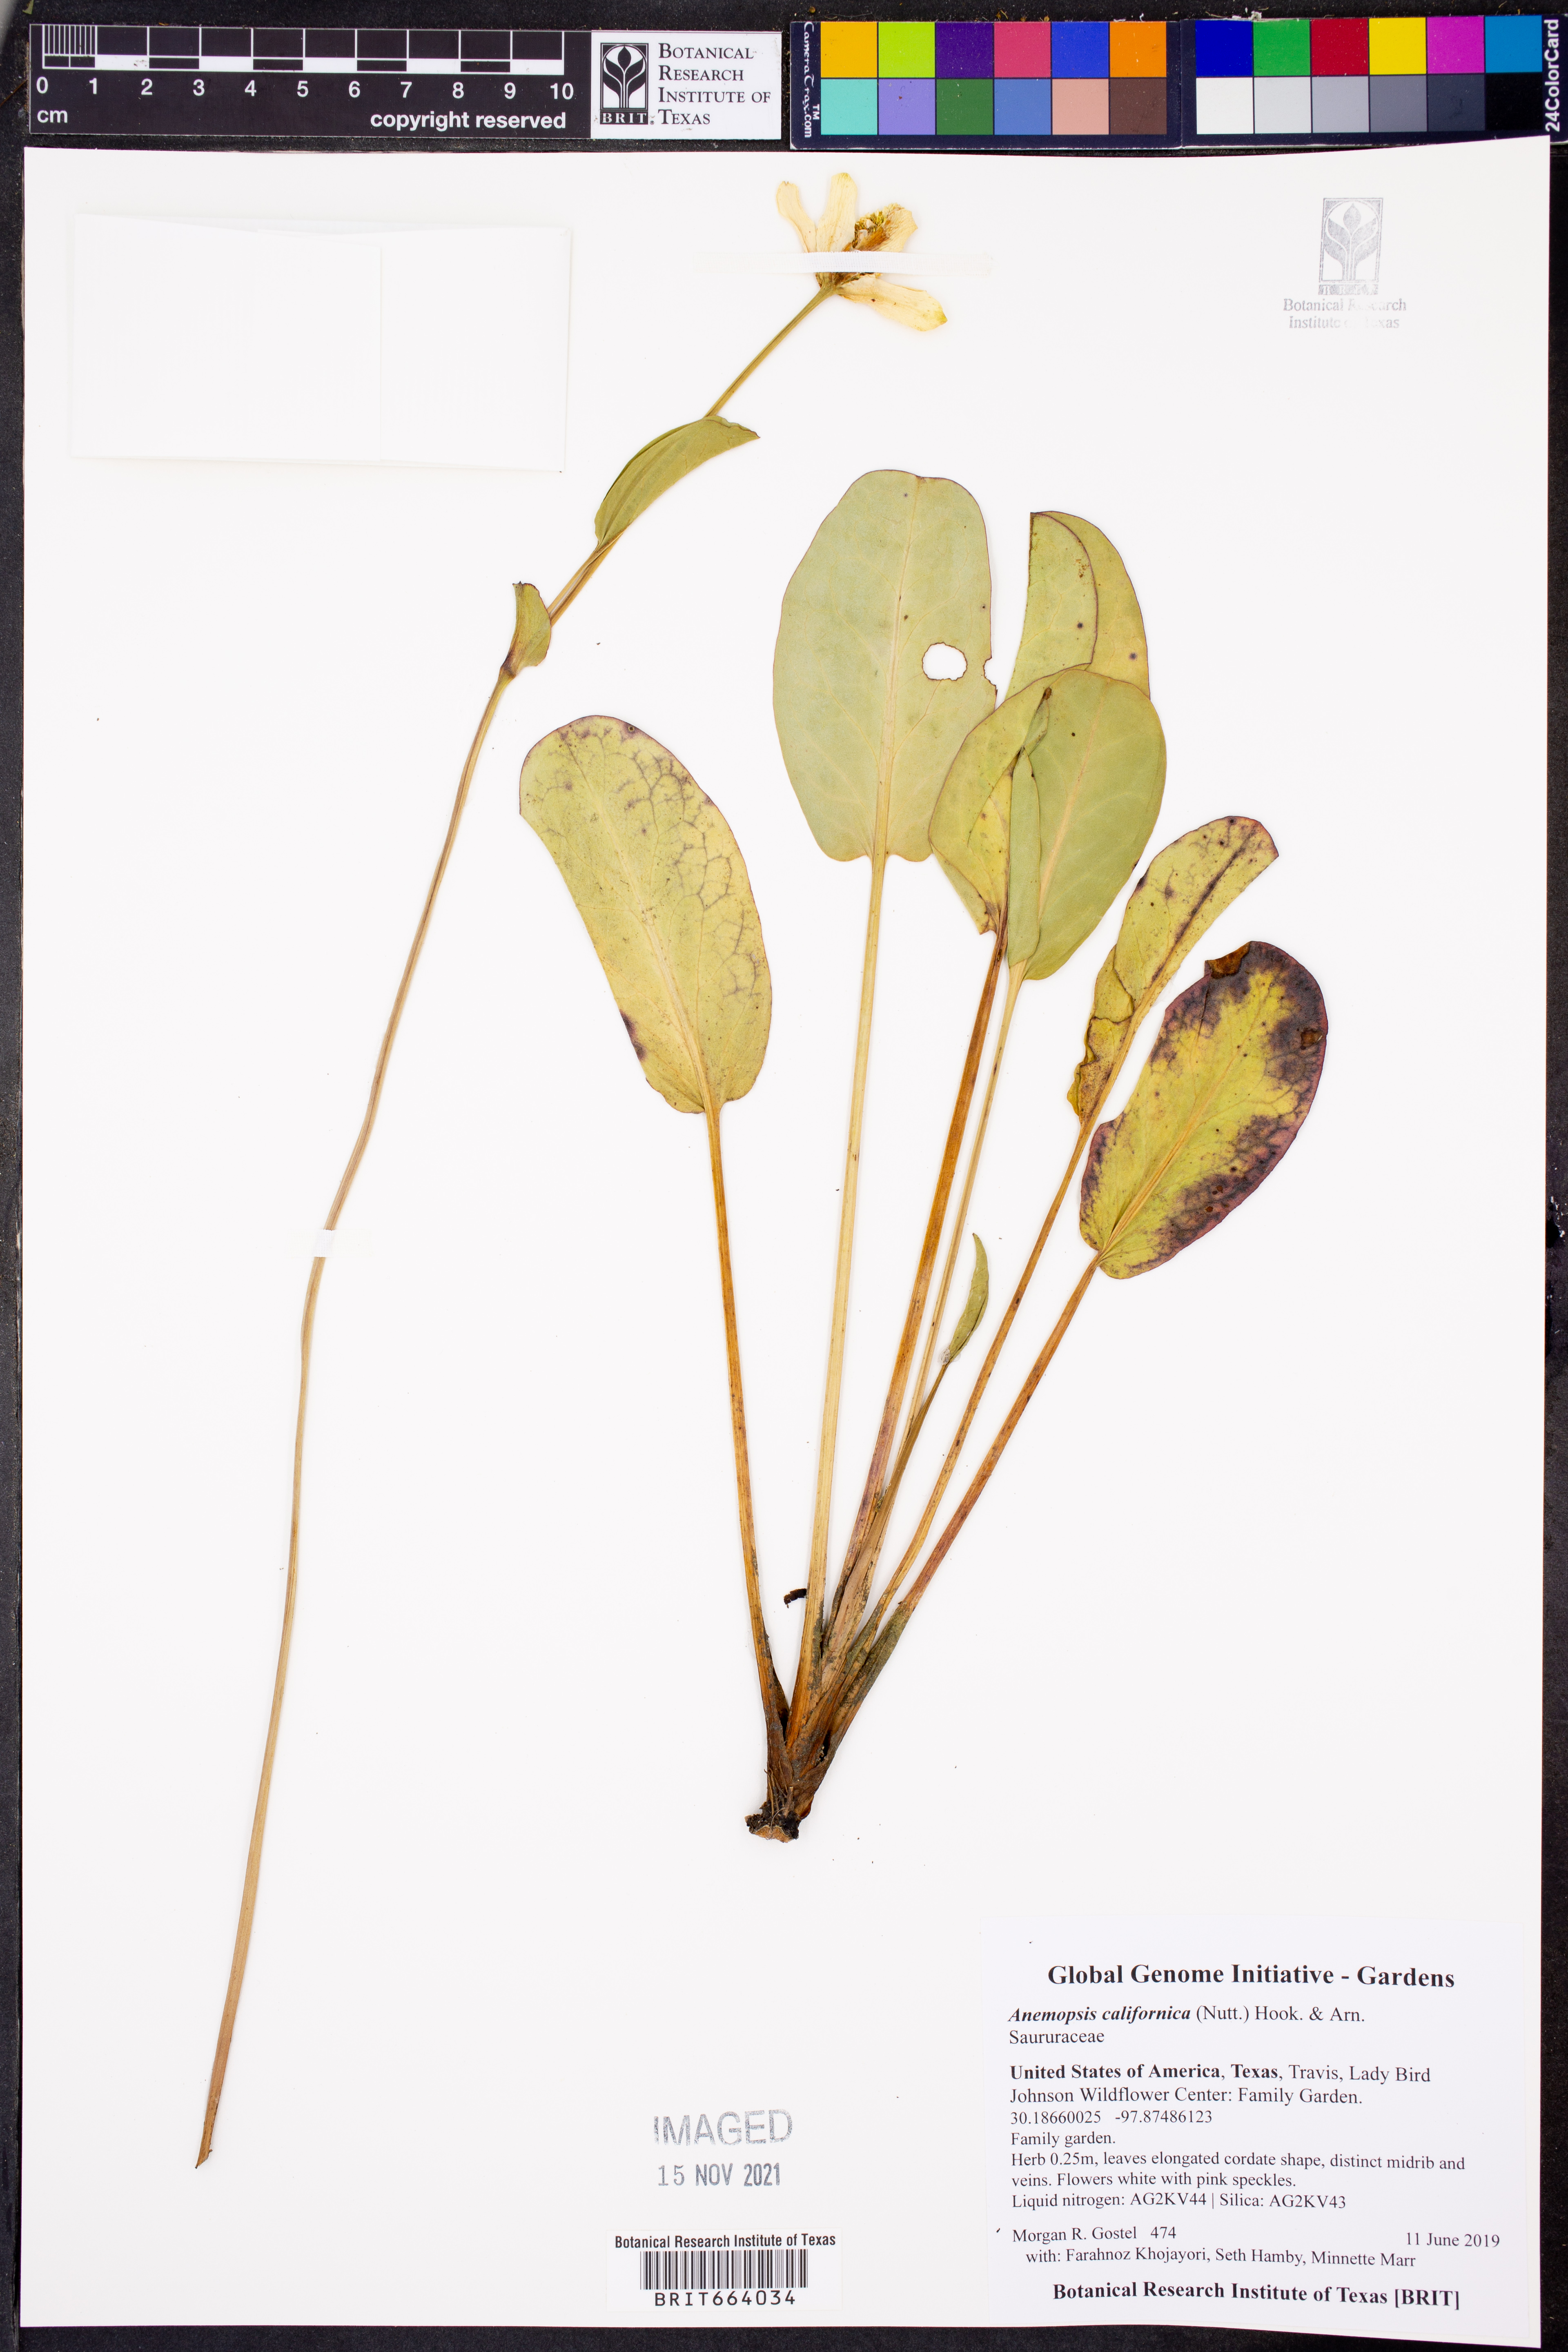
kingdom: Plantae
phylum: Tracheophyta
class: Magnoliopsida
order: Piperales
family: Saururaceae
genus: Anemopsis
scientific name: Anemopsis californica
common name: Apache-beads
